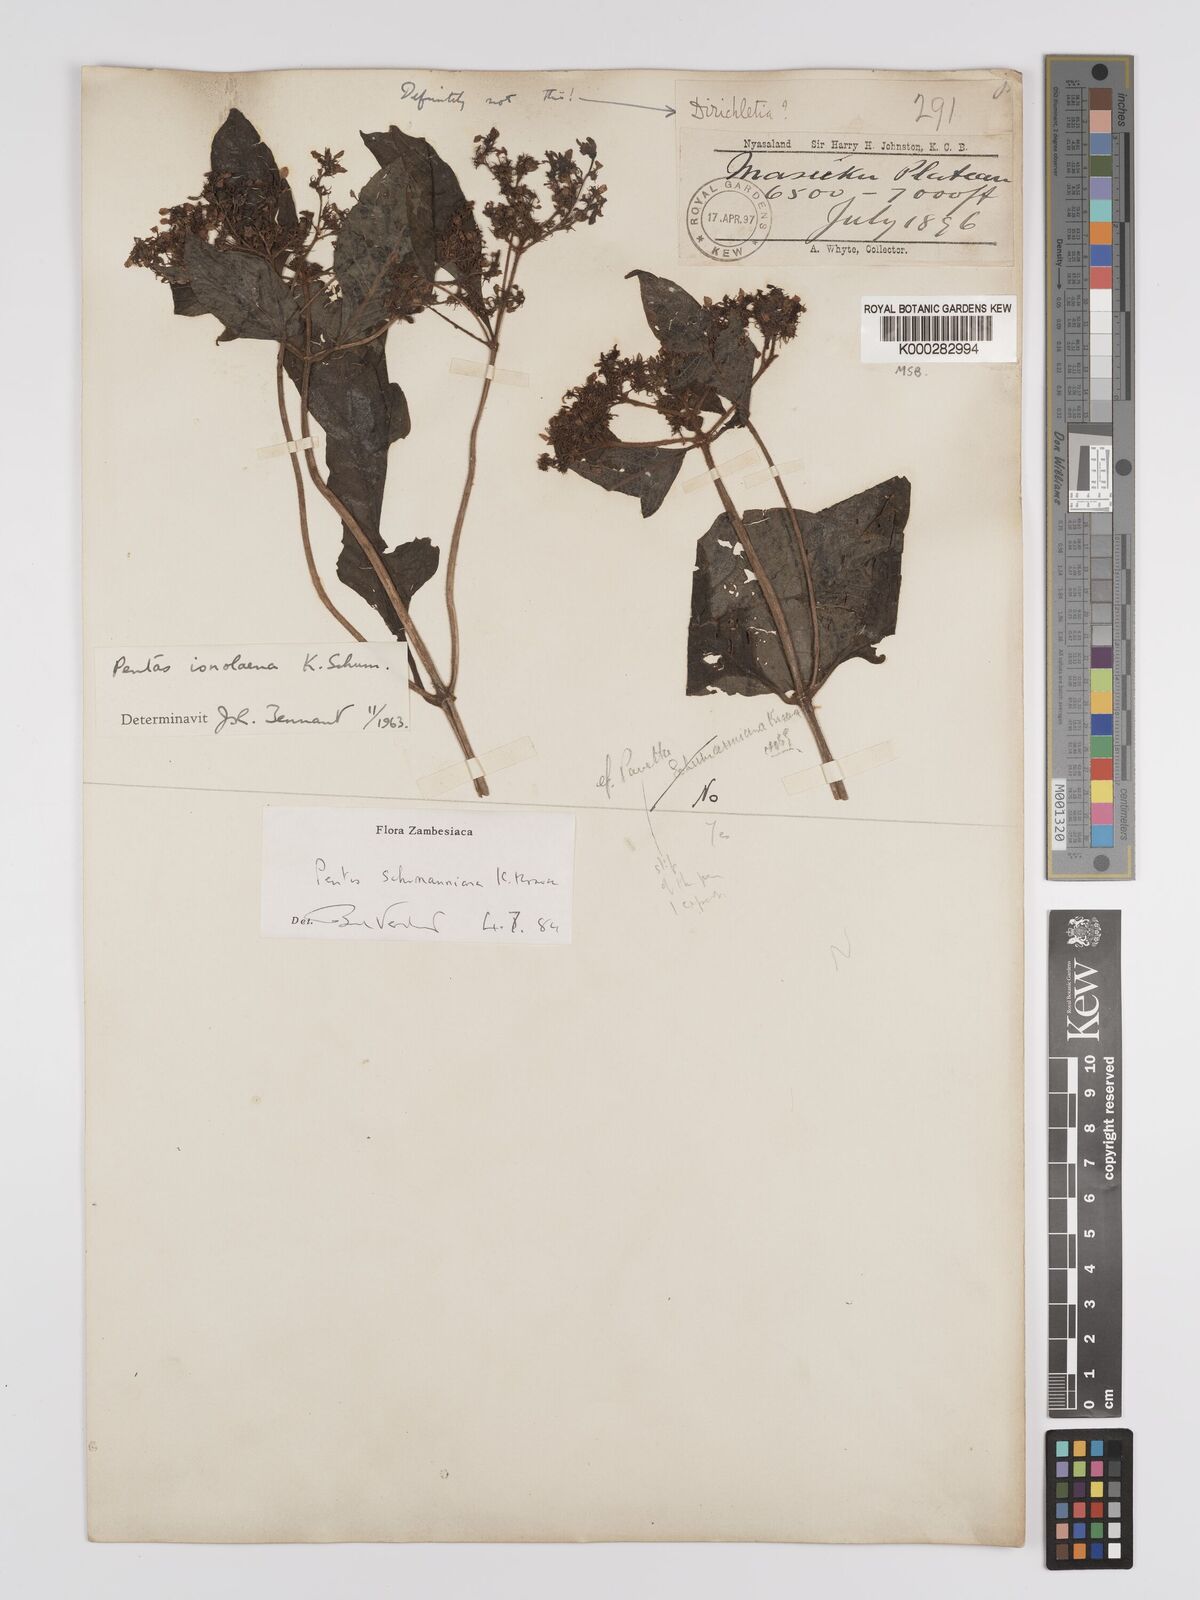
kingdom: Plantae
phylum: Tracheophyta
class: Magnoliopsida
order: Gentianales
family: Rubiaceae
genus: Phyllopentas
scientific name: Phyllopentas schumanniana
